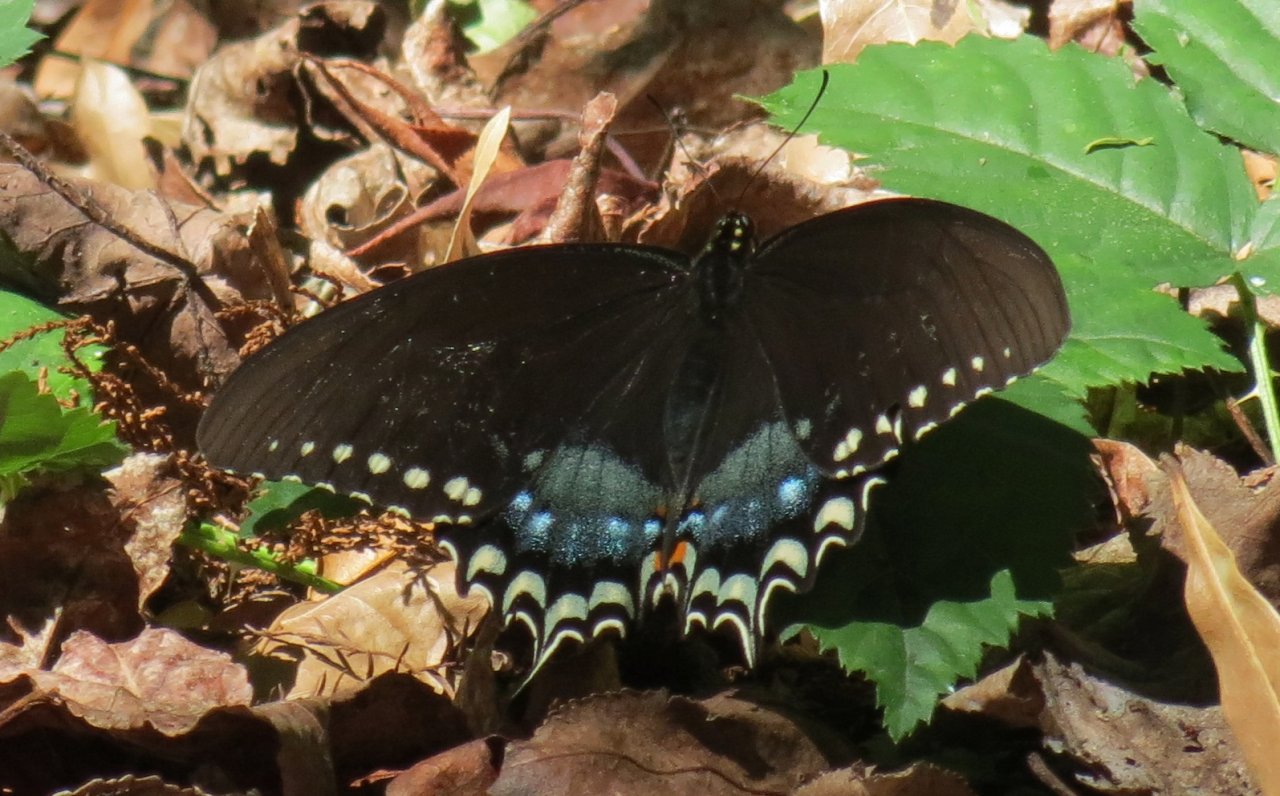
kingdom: Animalia
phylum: Arthropoda
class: Insecta
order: Lepidoptera
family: Papilionidae
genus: Pterourus
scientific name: Pterourus troilus
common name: Spicebush Swallowtail
